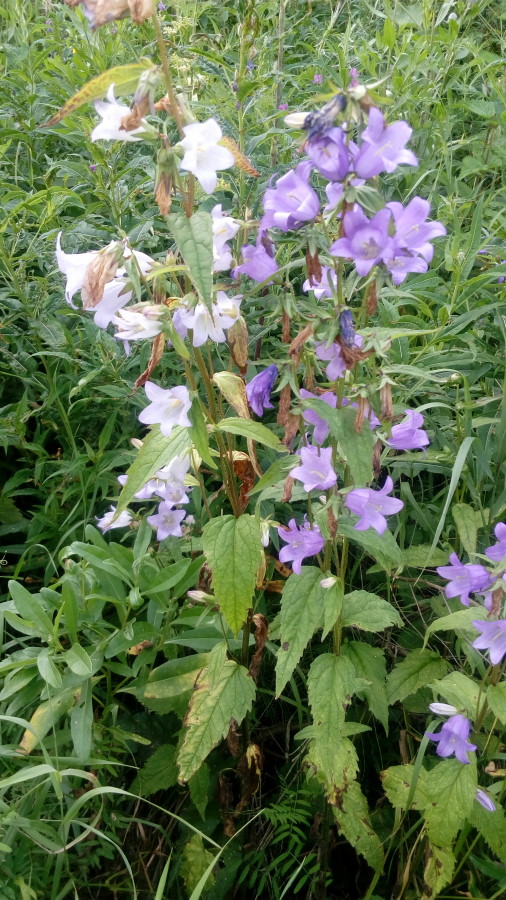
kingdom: Plantae
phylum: Tracheophyta
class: Magnoliopsida
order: Asterales
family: Campanulaceae
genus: Campanula
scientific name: Campanula
